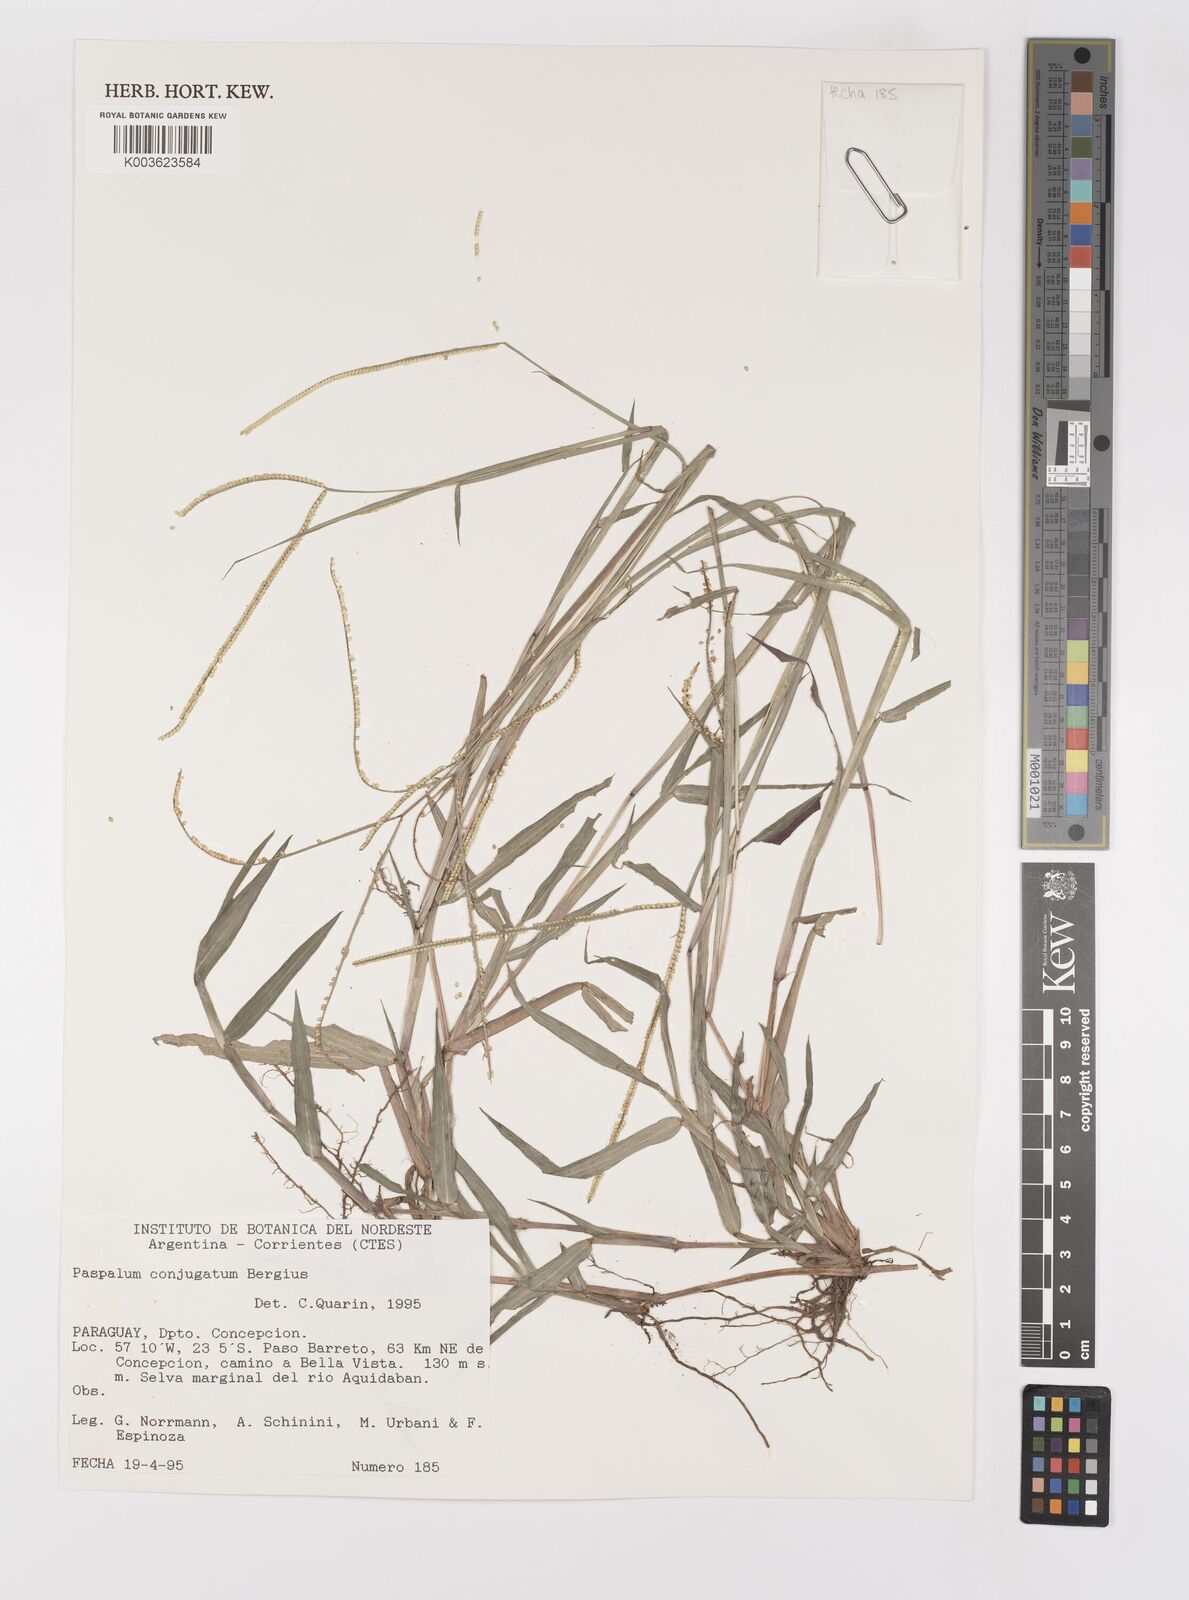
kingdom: Plantae
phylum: Tracheophyta
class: Liliopsida
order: Poales
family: Poaceae
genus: Paspalum
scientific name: Paspalum conjugatum
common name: Hilograss
